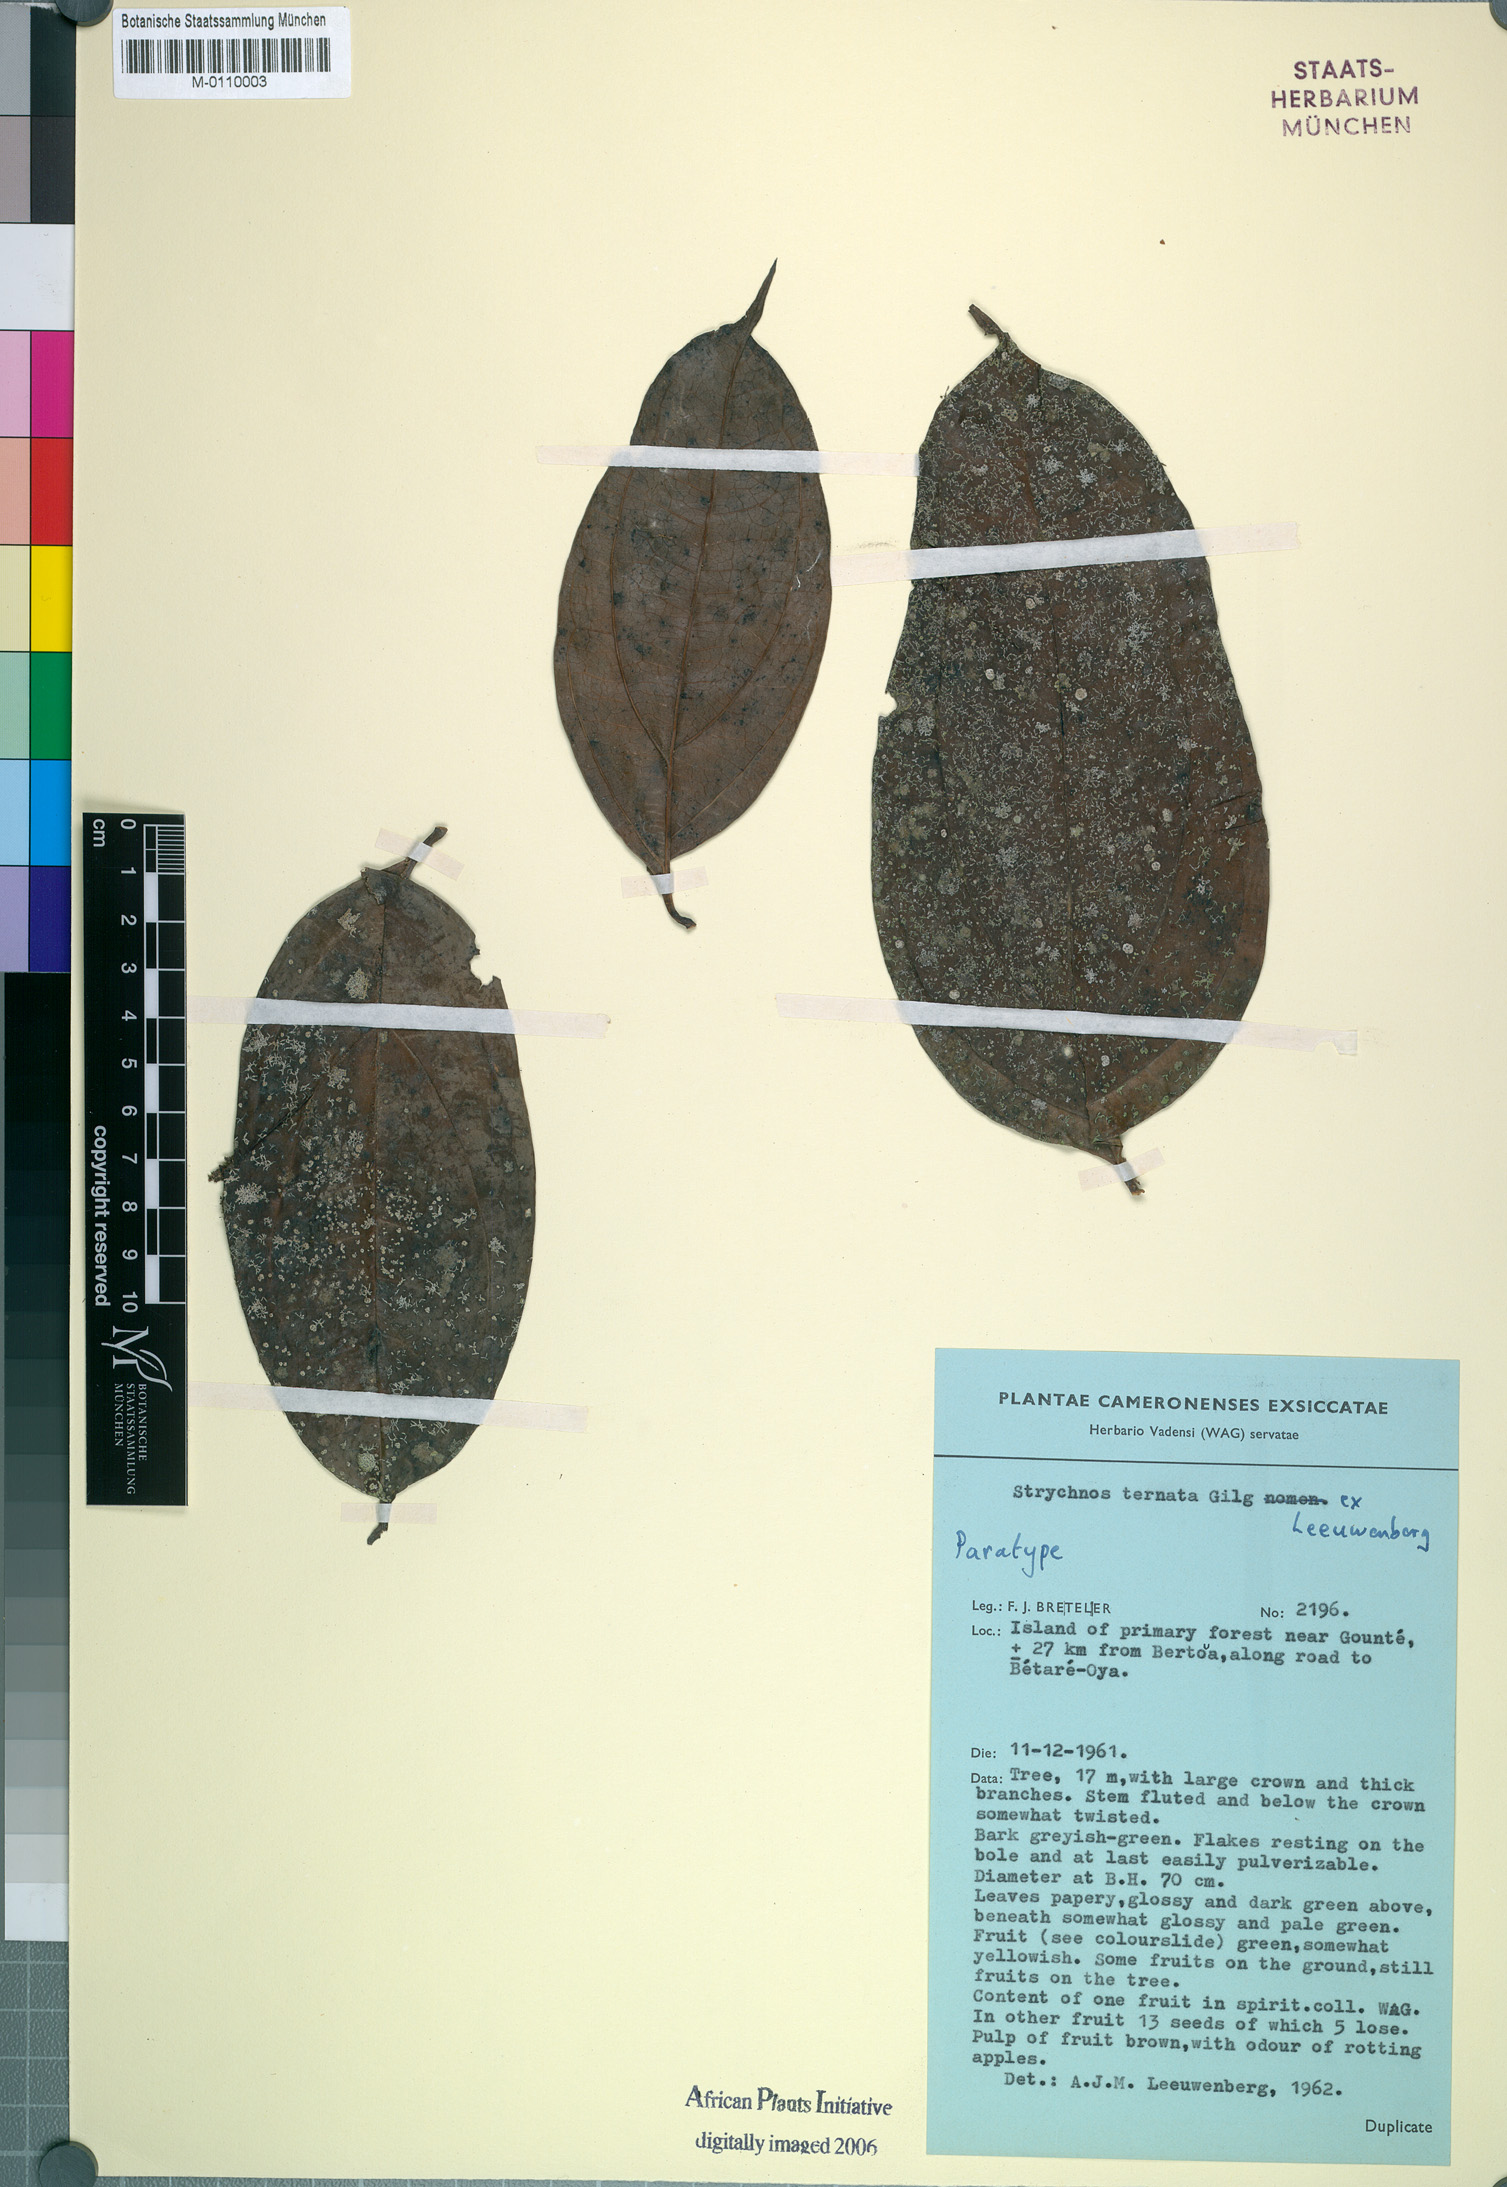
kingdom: Plantae
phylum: Tracheophyta
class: Magnoliopsida
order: Gentianales
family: Loganiaceae
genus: Strychnos
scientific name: Strychnos ternata
